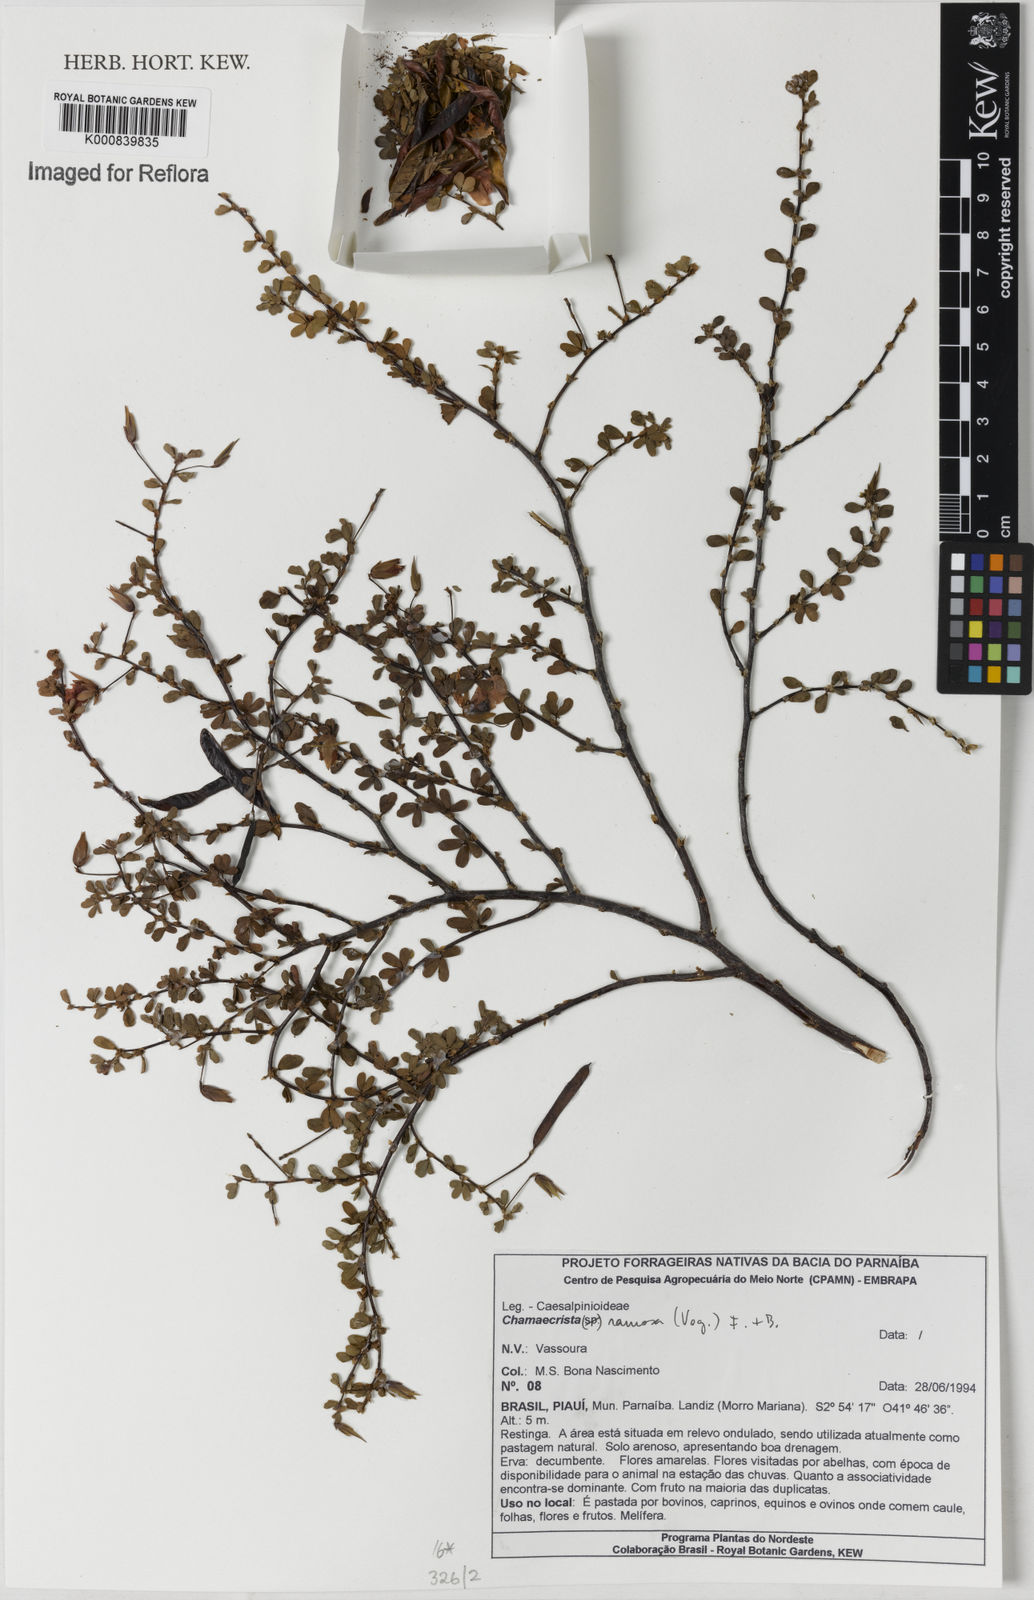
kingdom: Plantae
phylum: Tracheophyta
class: Magnoliopsida
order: Fabales
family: Fabaceae
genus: Chamaecrista
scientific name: Chamaecrista ramosa
